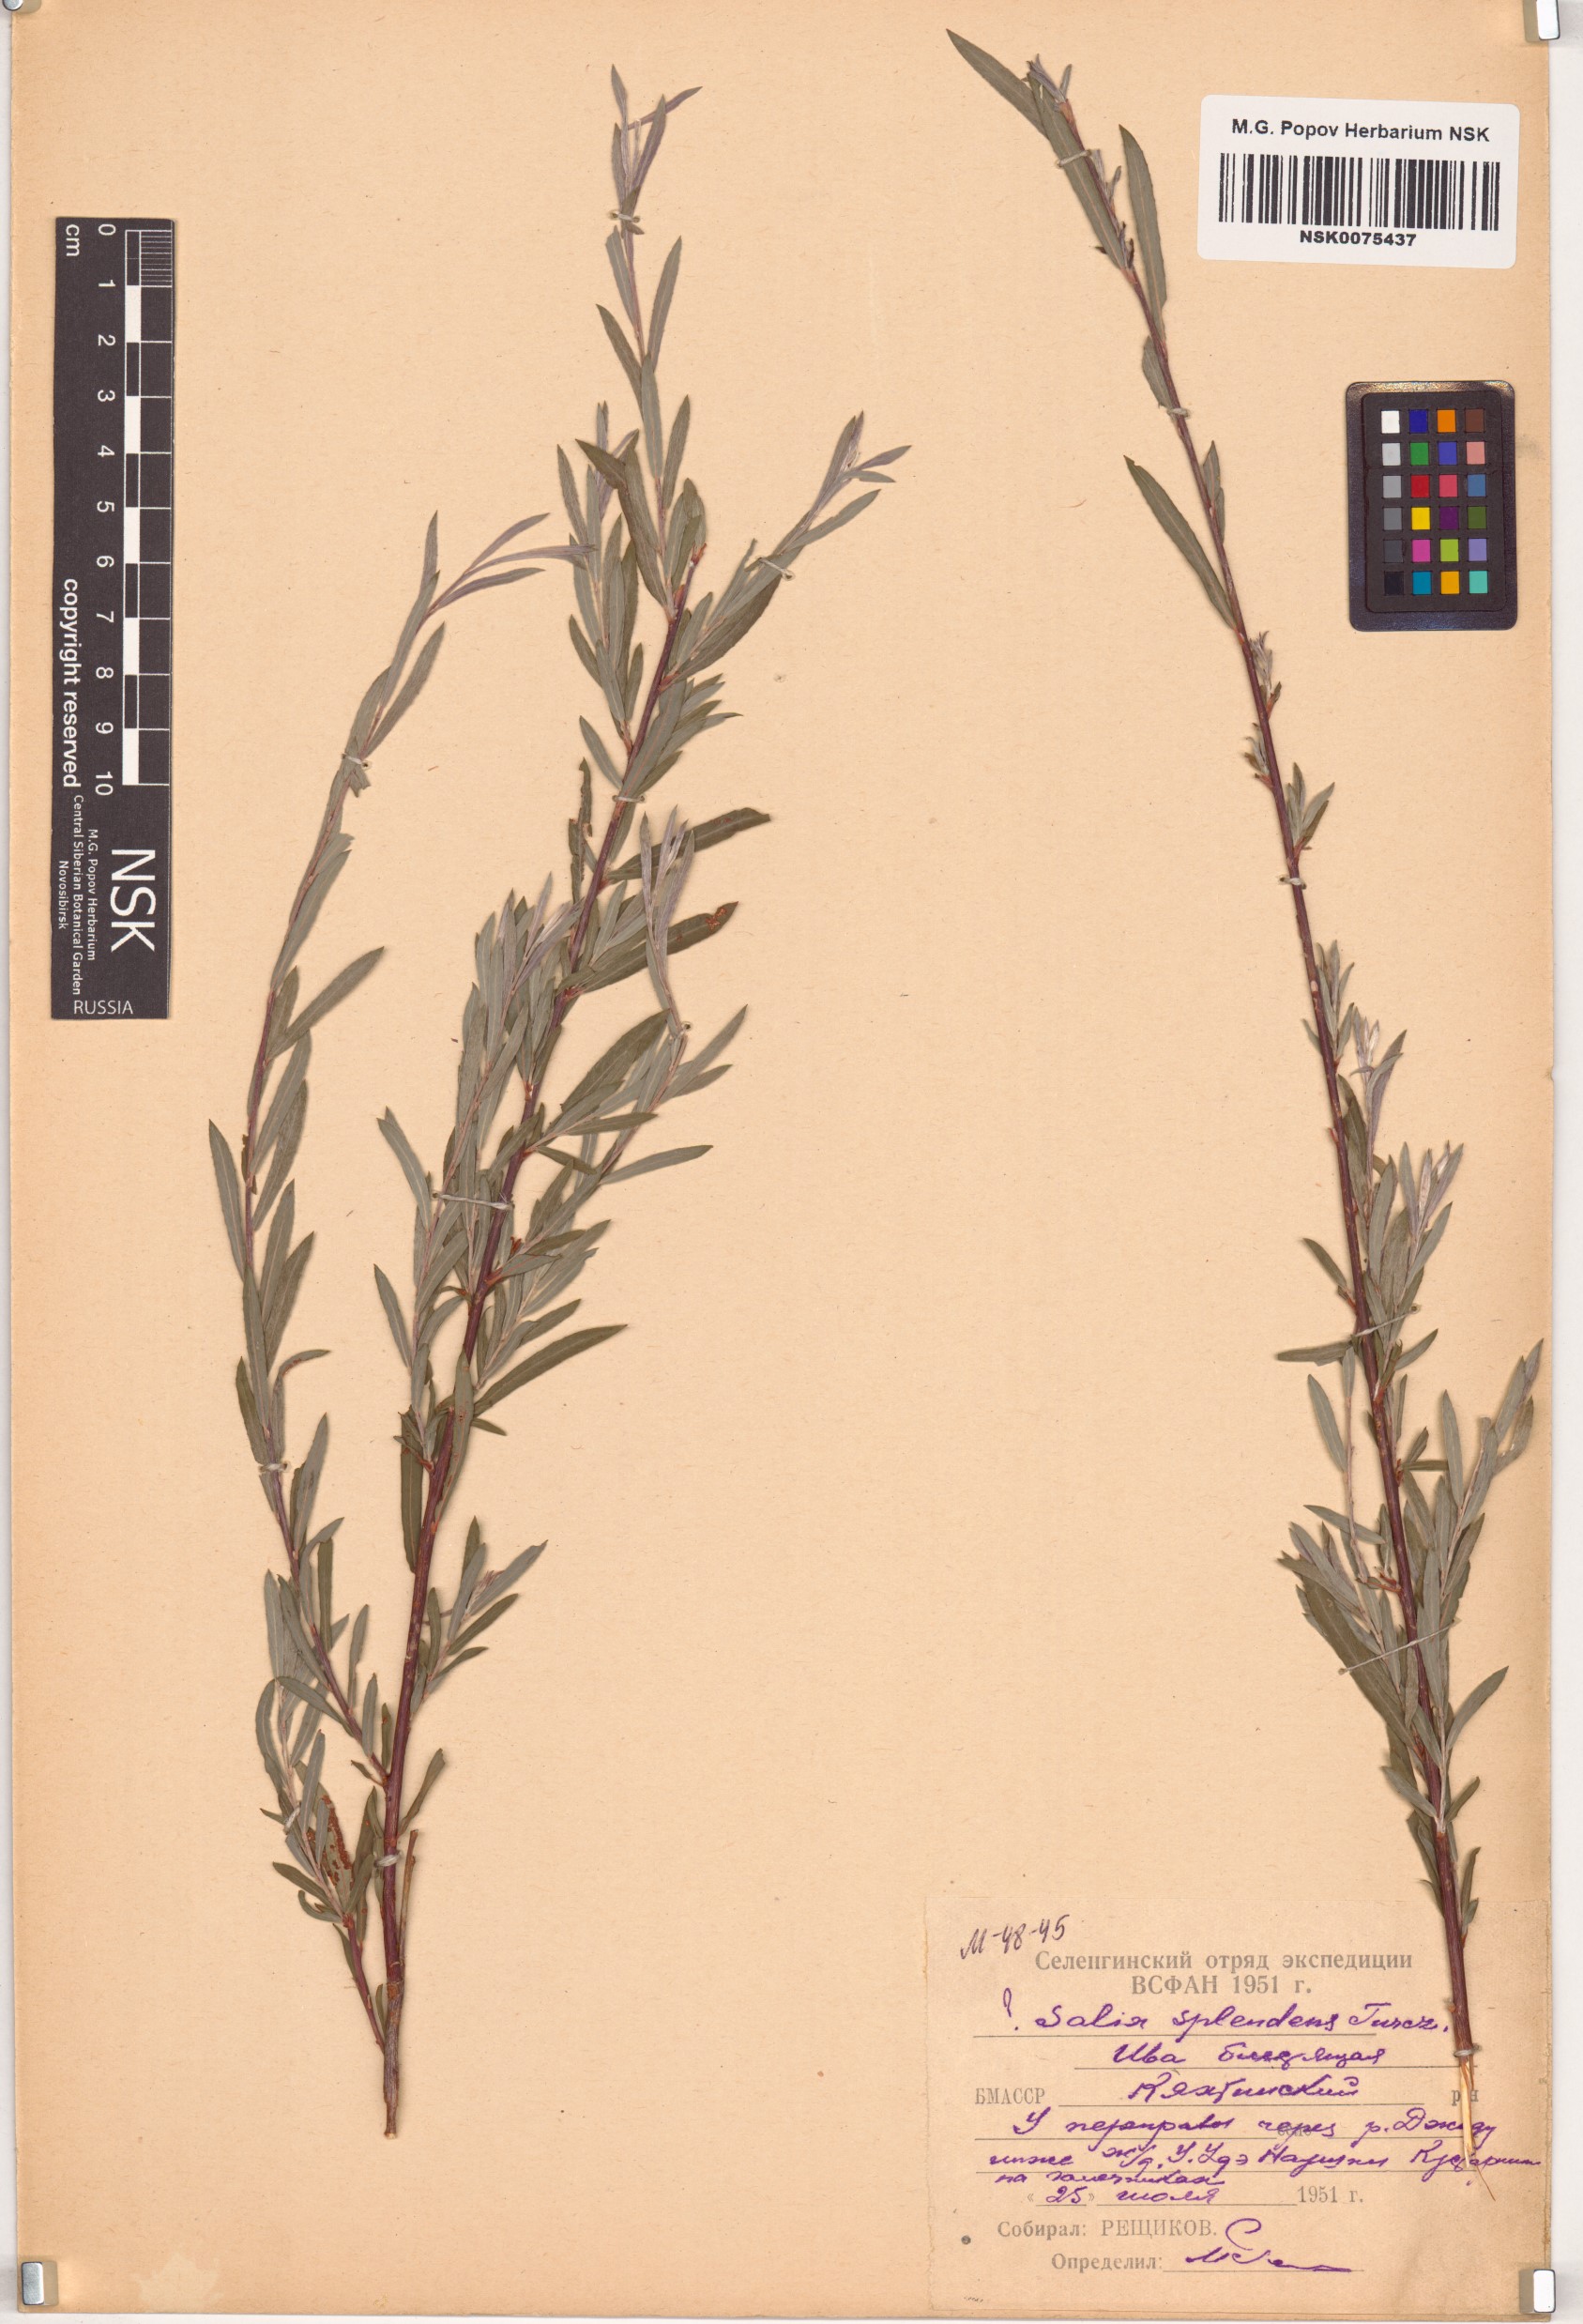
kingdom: Plantae
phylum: Tracheophyta
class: Magnoliopsida
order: Malpighiales
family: Salicaceae
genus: Salix
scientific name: Salix
